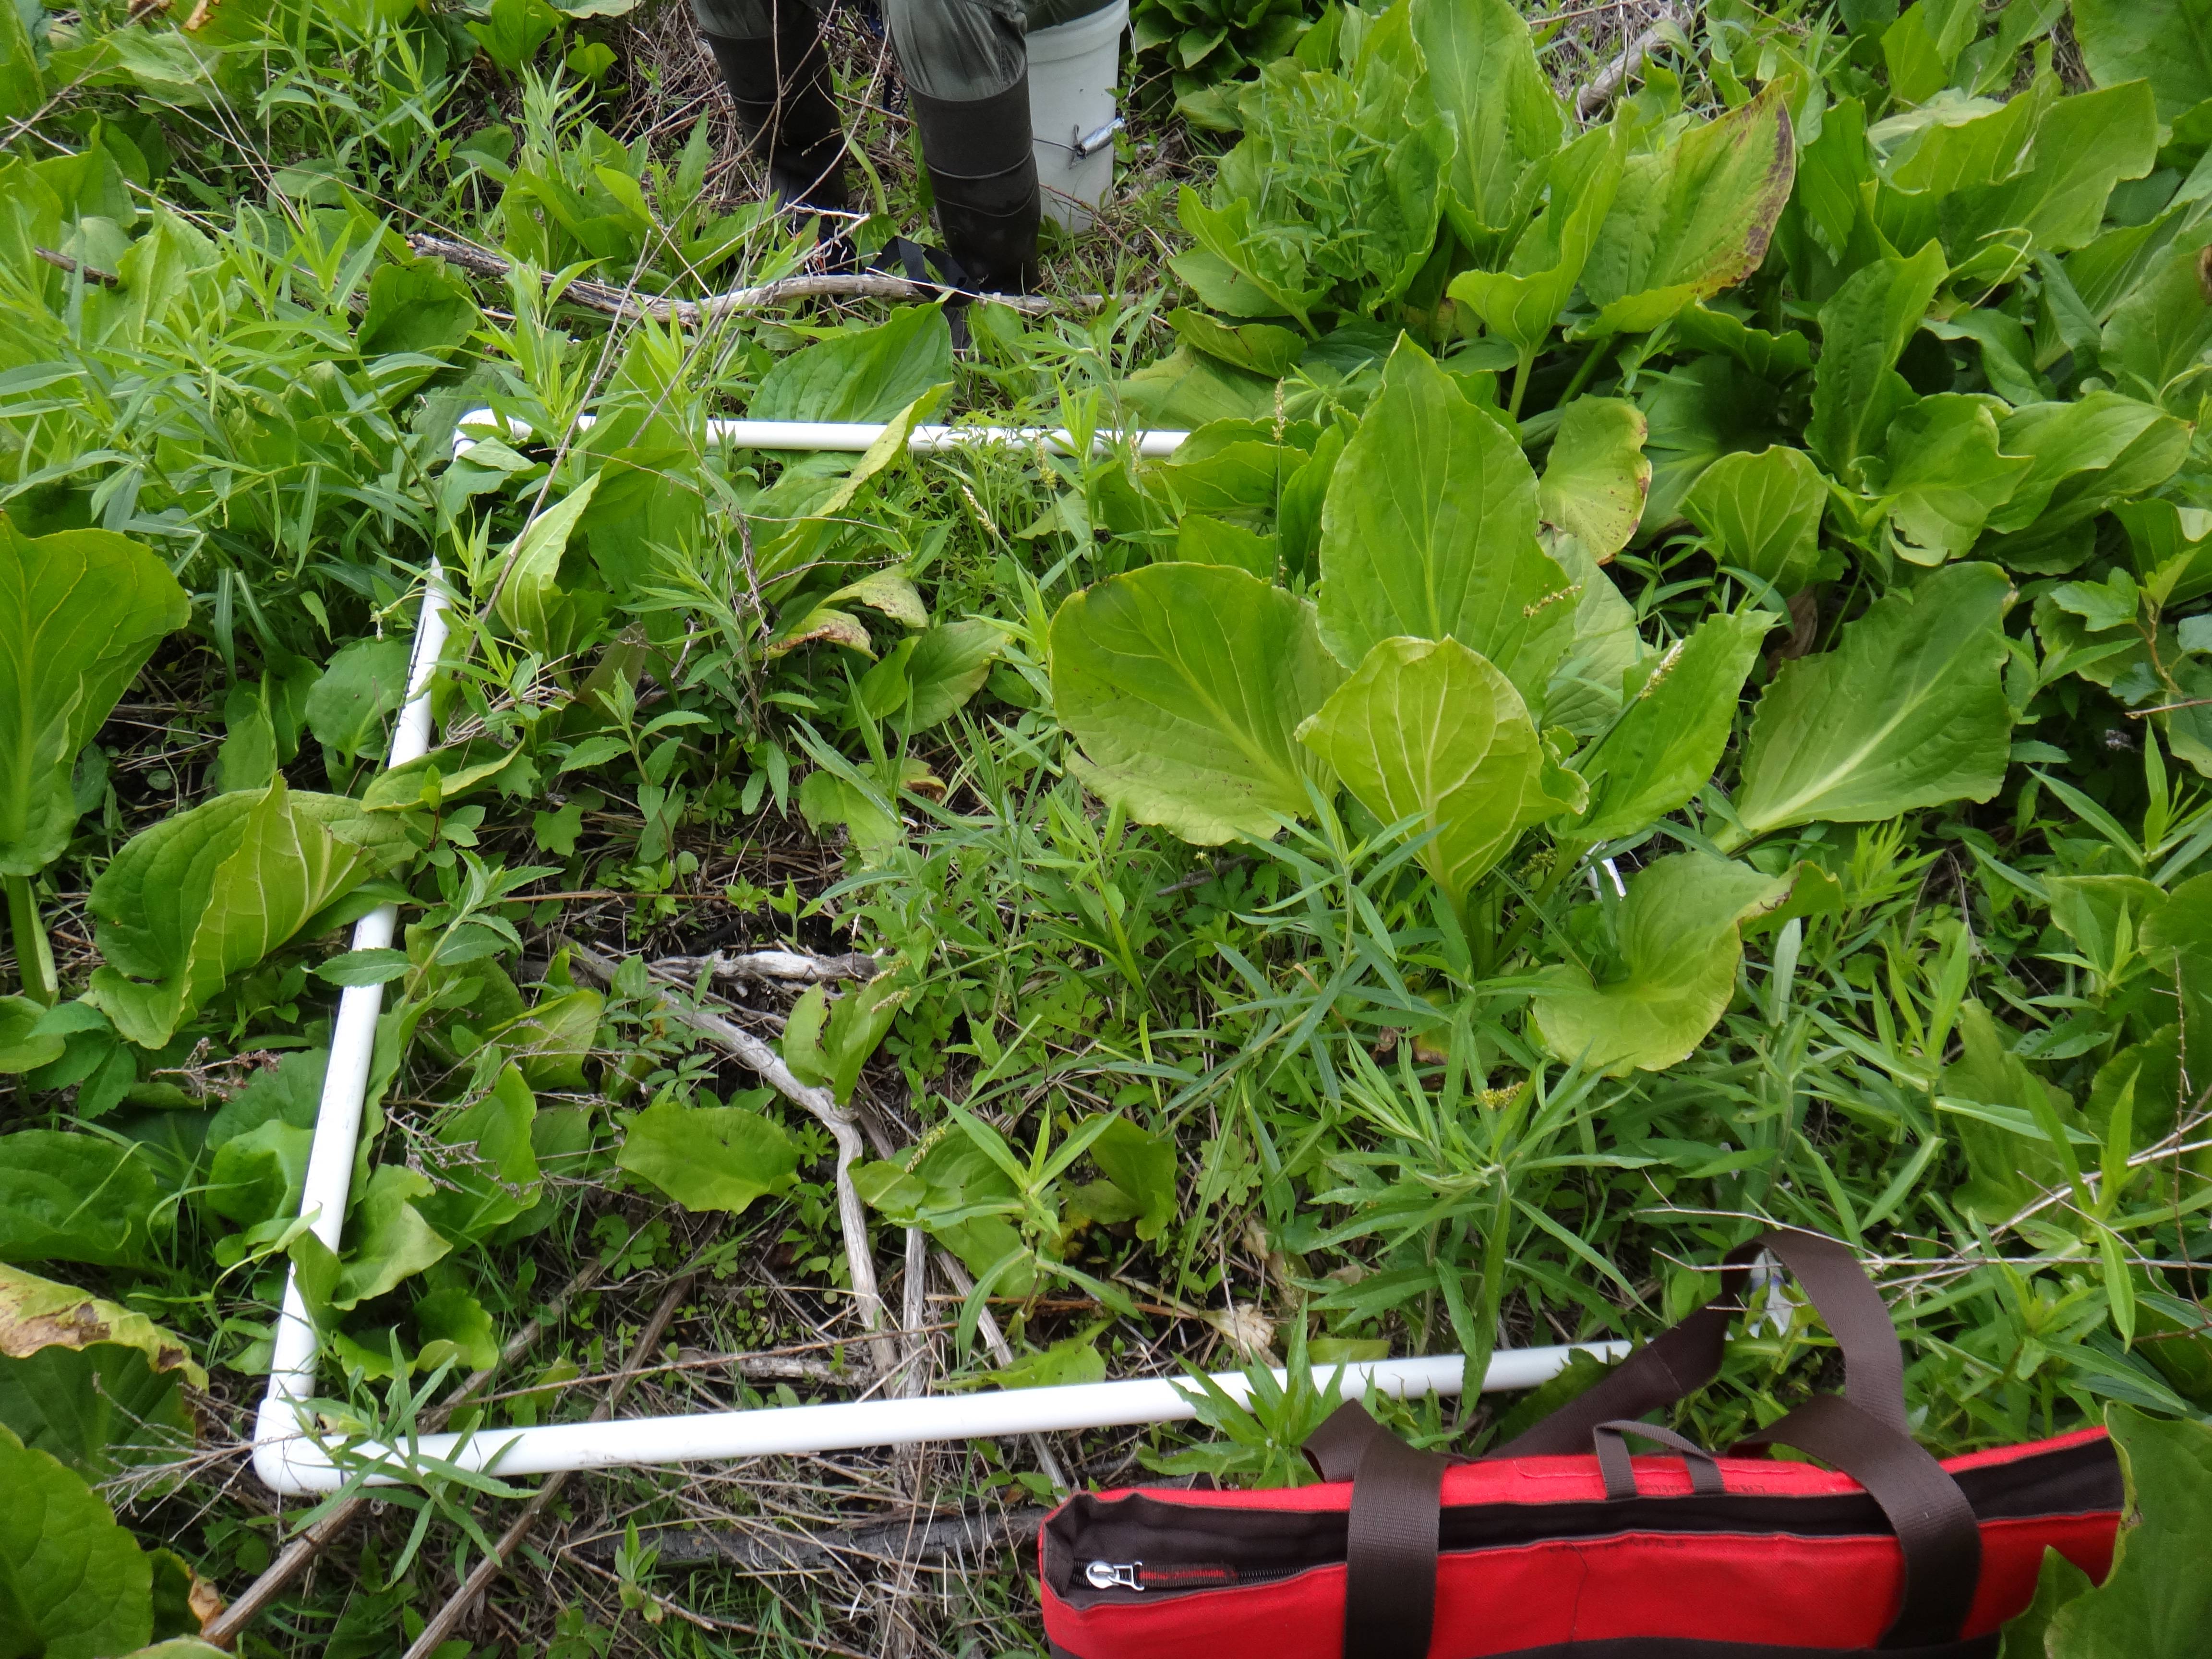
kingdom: Plantae
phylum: Tracheophyta
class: Liliopsida
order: Alismatales
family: Araceae
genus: Symplocarpus
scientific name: Symplocarpus foetidus
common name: Eastern skunk cabbage
